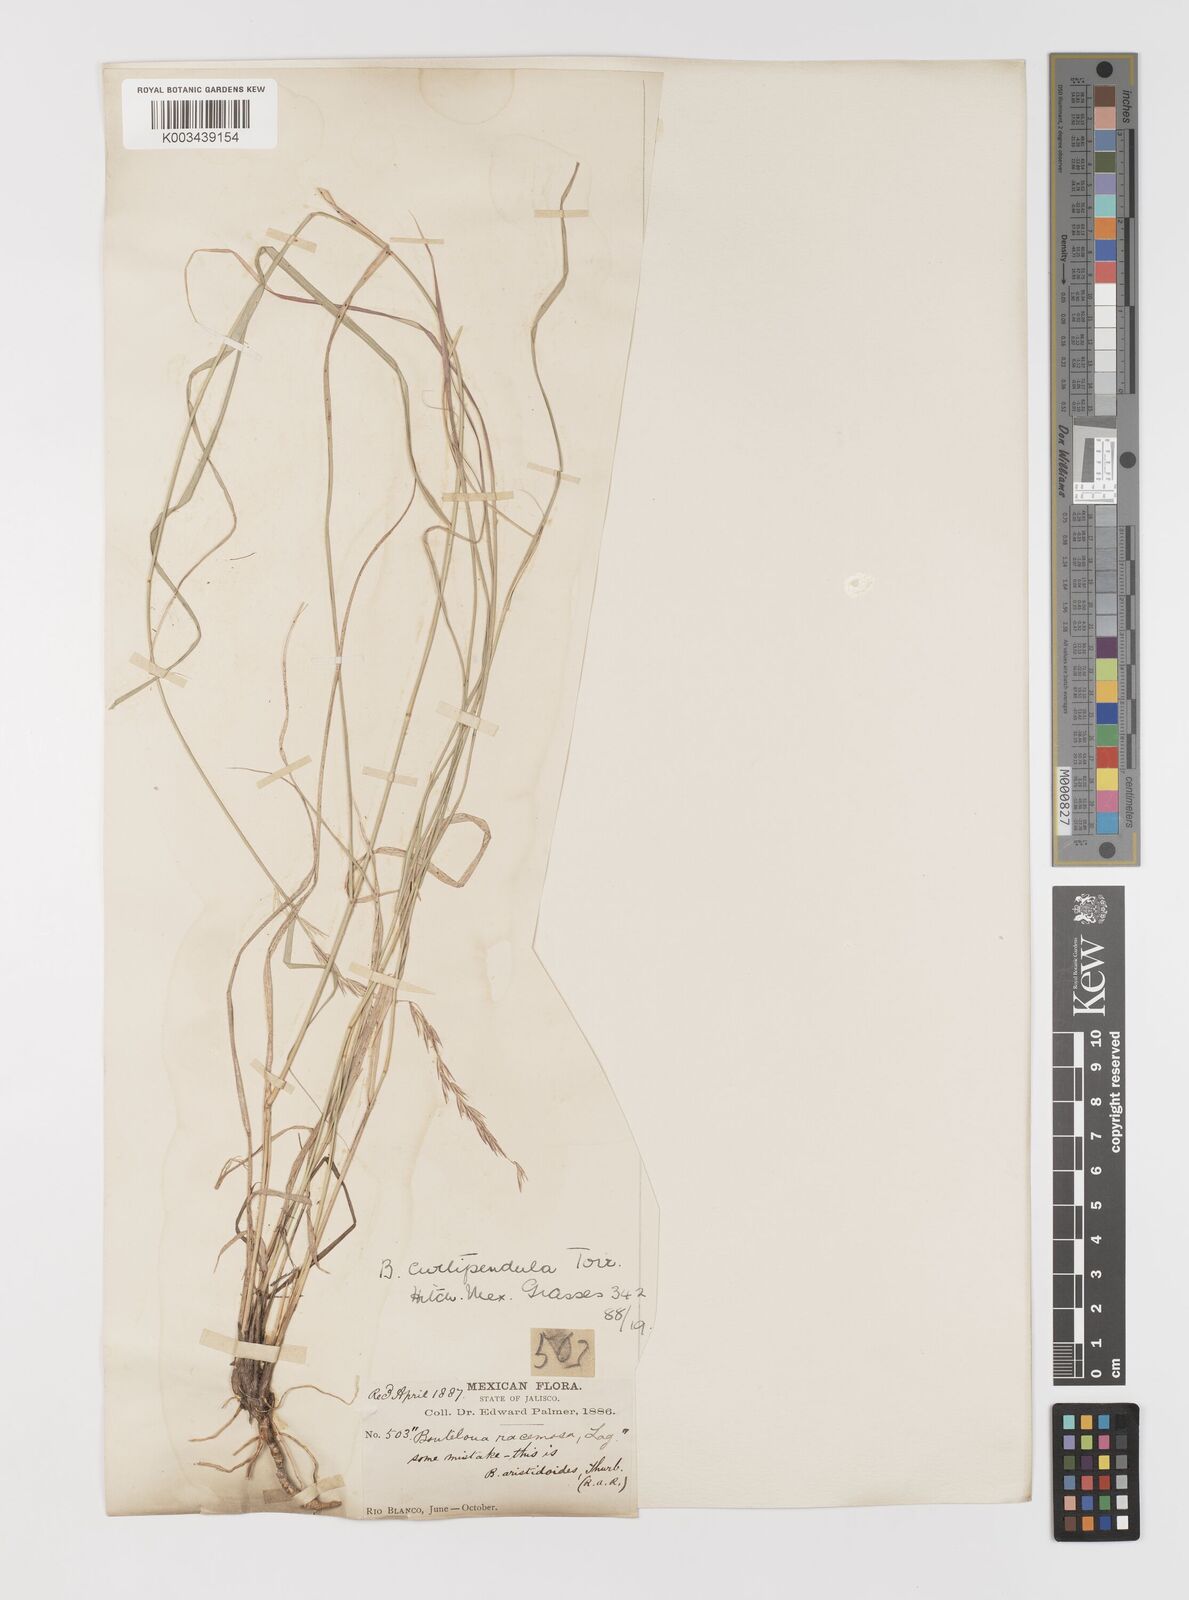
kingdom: Plantae
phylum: Tracheophyta
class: Liliopsida
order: Poales
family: Poaceae
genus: Bouteloua
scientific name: Bouteloua curtipendula
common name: Side-oats grama
